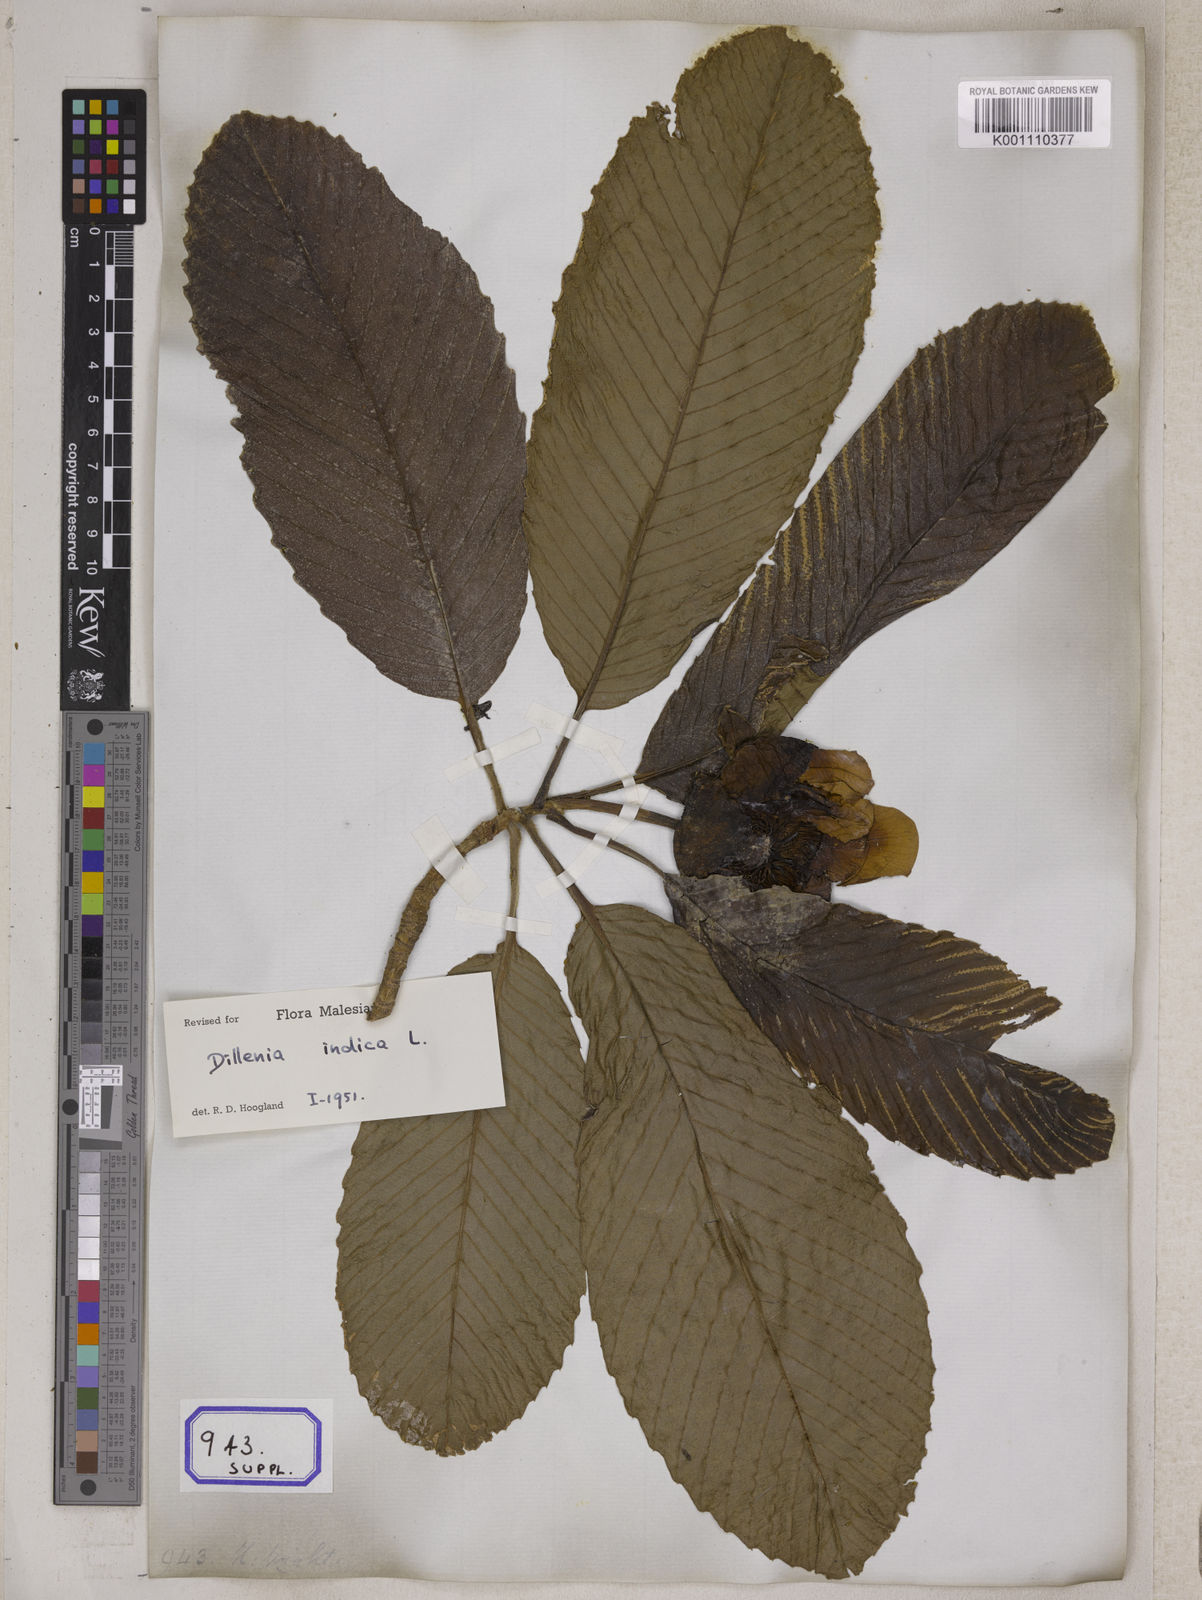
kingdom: Plantae
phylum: Tracheophyta
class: Magnoliopsida
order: Dilleniales
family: Dilleniaceae
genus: Dillenia
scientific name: Dillenia indica
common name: Elephant apple
